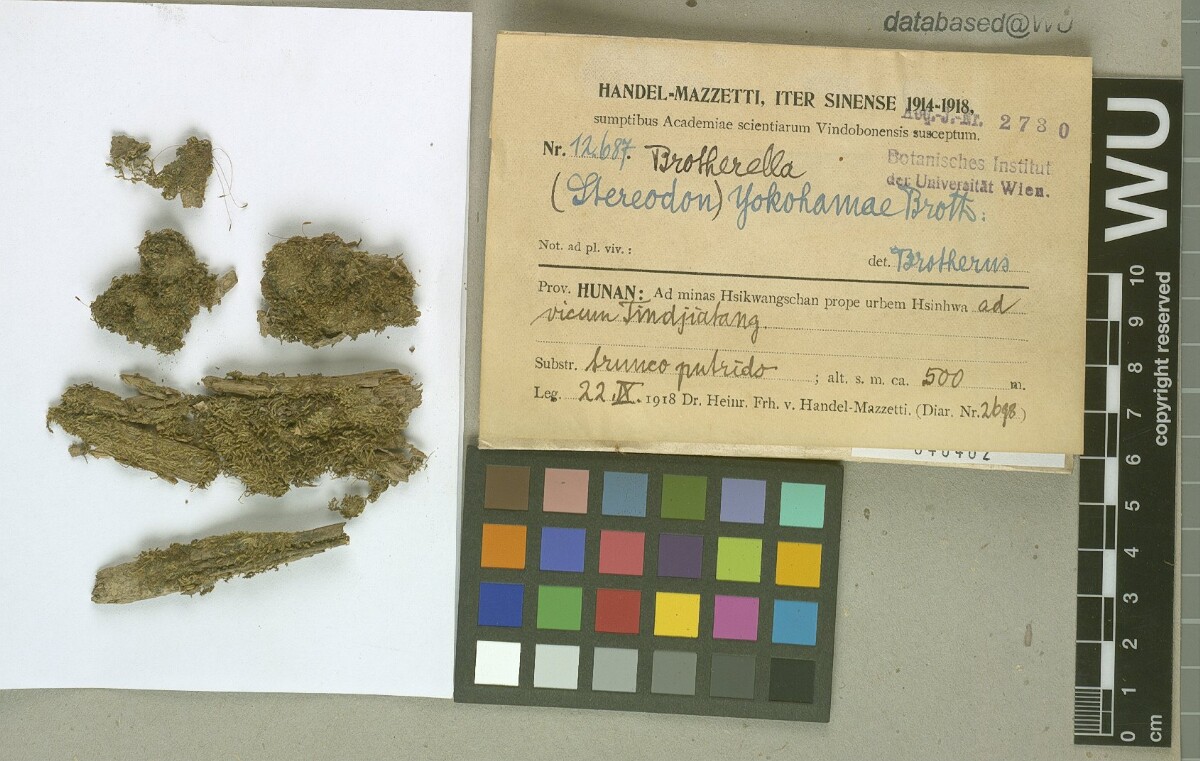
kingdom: Plantae
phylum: Bryophyta
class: Bryopsida
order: Hypnales
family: Pylaisiadelphaceae
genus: Brotherella
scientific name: Brotherella yokohamae
